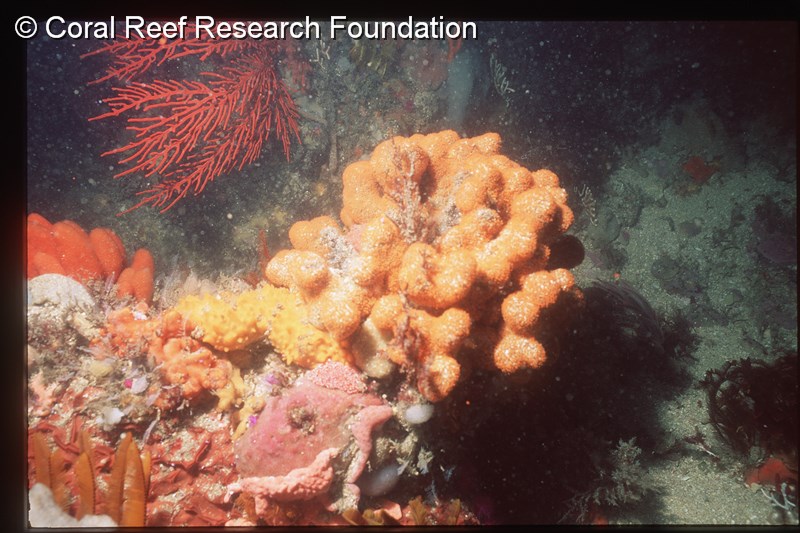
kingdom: Animalia
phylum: Chordata
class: Ascidiacea
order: Aplousobranchia
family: Clavelinidae
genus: Pycnoclavella
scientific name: Pycnoclavella inflorescens
